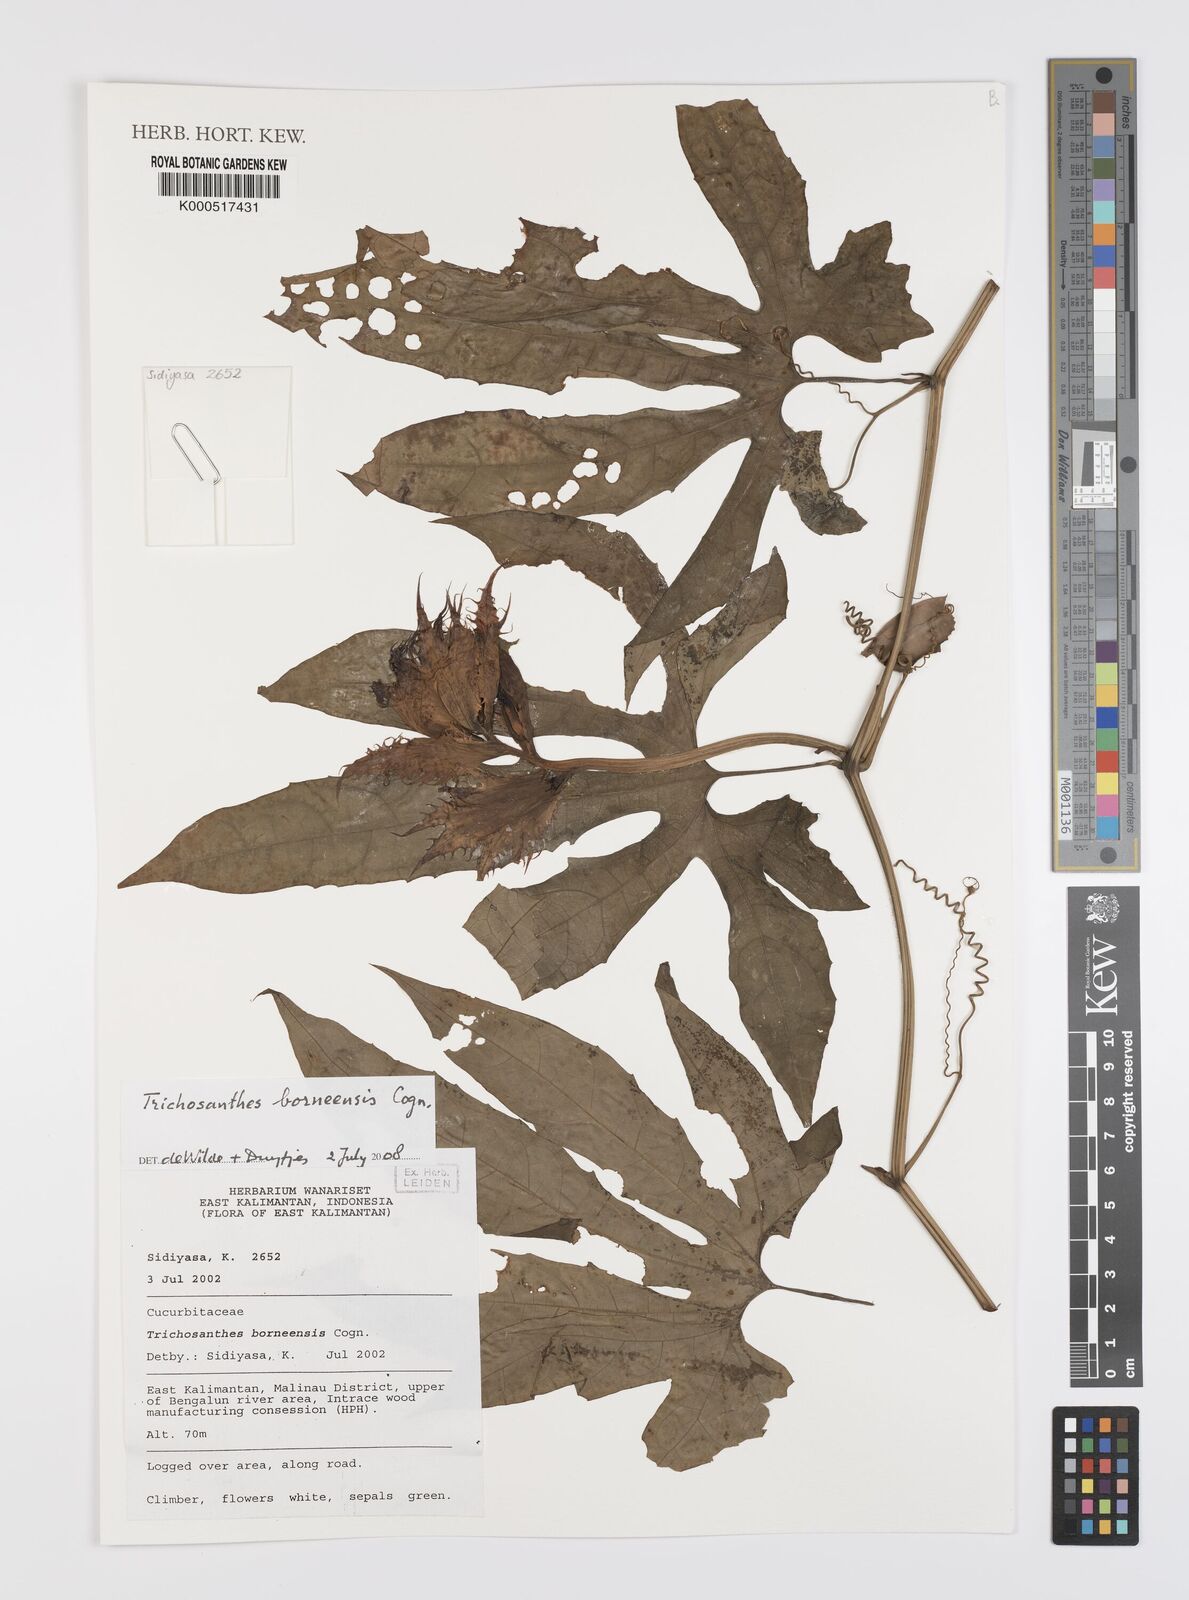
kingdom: Plantae
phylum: Tracheophyta
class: Magnoliopsida
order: Cucurbitales
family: Cucurbitaceae
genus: Trichosanthes
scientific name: Trichosanthes borneensis
